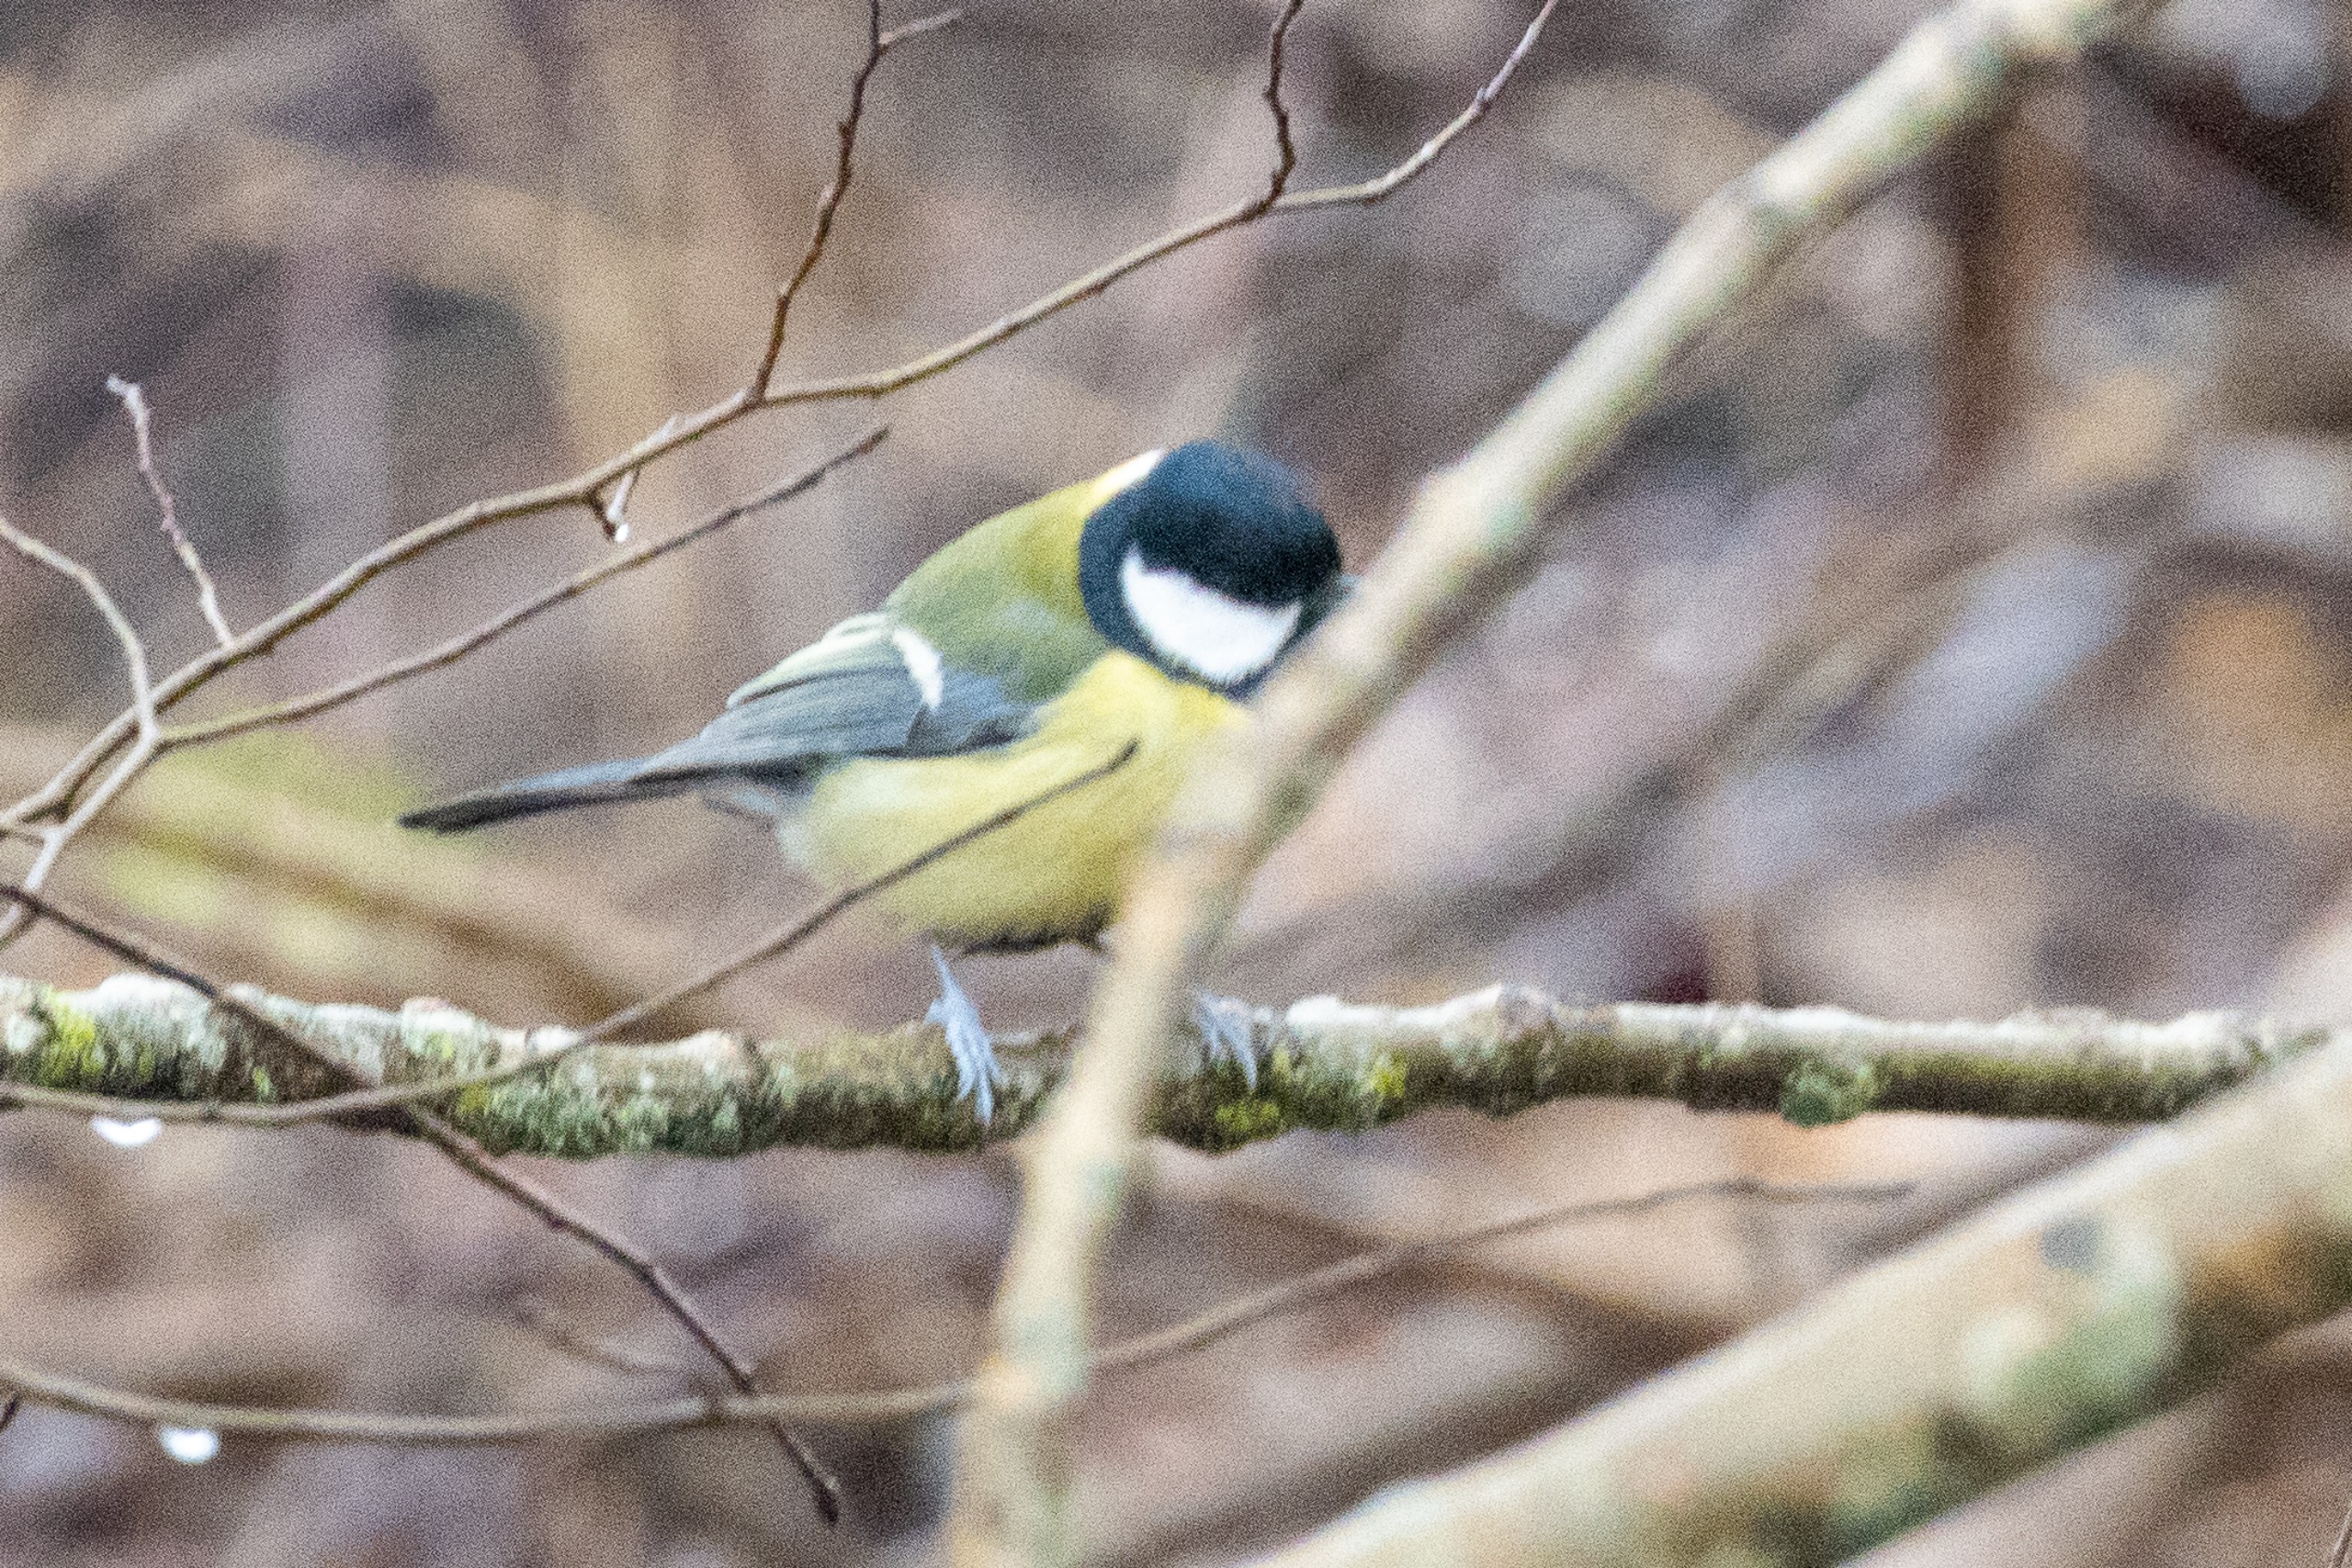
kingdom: Animalia
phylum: Chordata
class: Aves
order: Passeriformes
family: Paridae
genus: Parus
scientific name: Parus major
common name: Musvit
